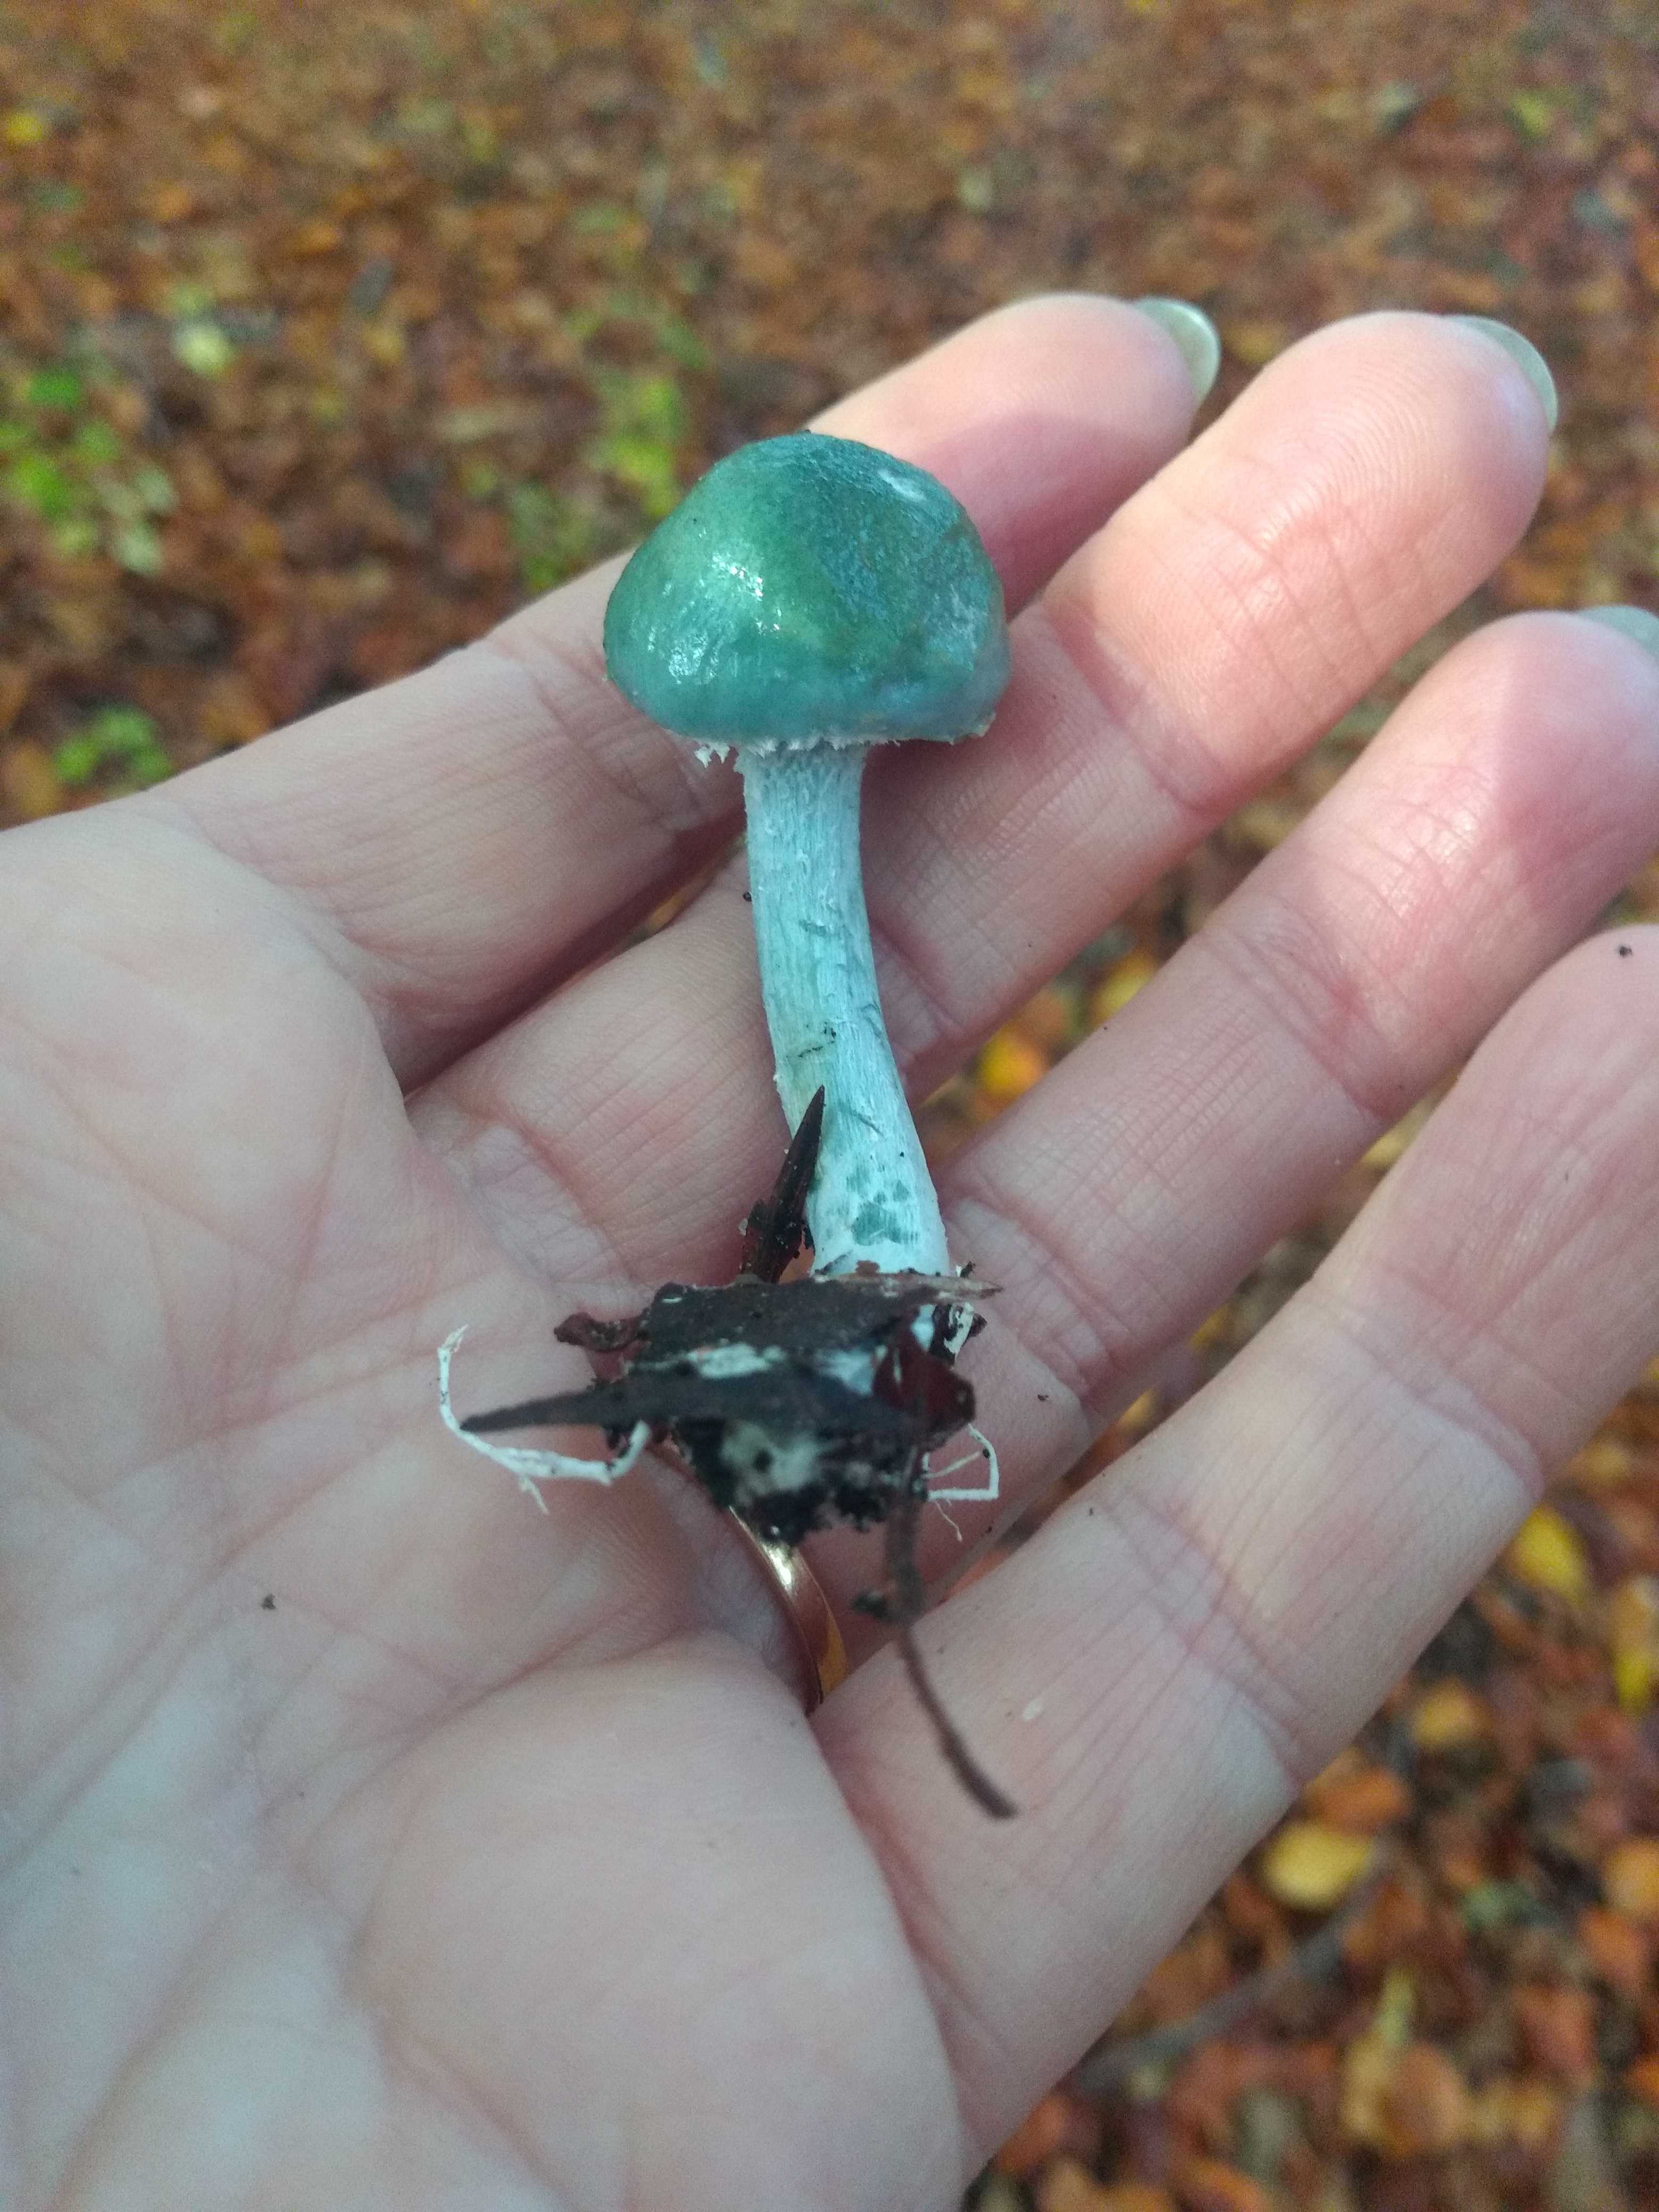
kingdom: Fungi
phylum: Basidiomycota
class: Agaricomycetes
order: Agaricales
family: Strophariaceae
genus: Stropharia
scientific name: Stropharia aeruginosa
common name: spanskgrøn bredblad
